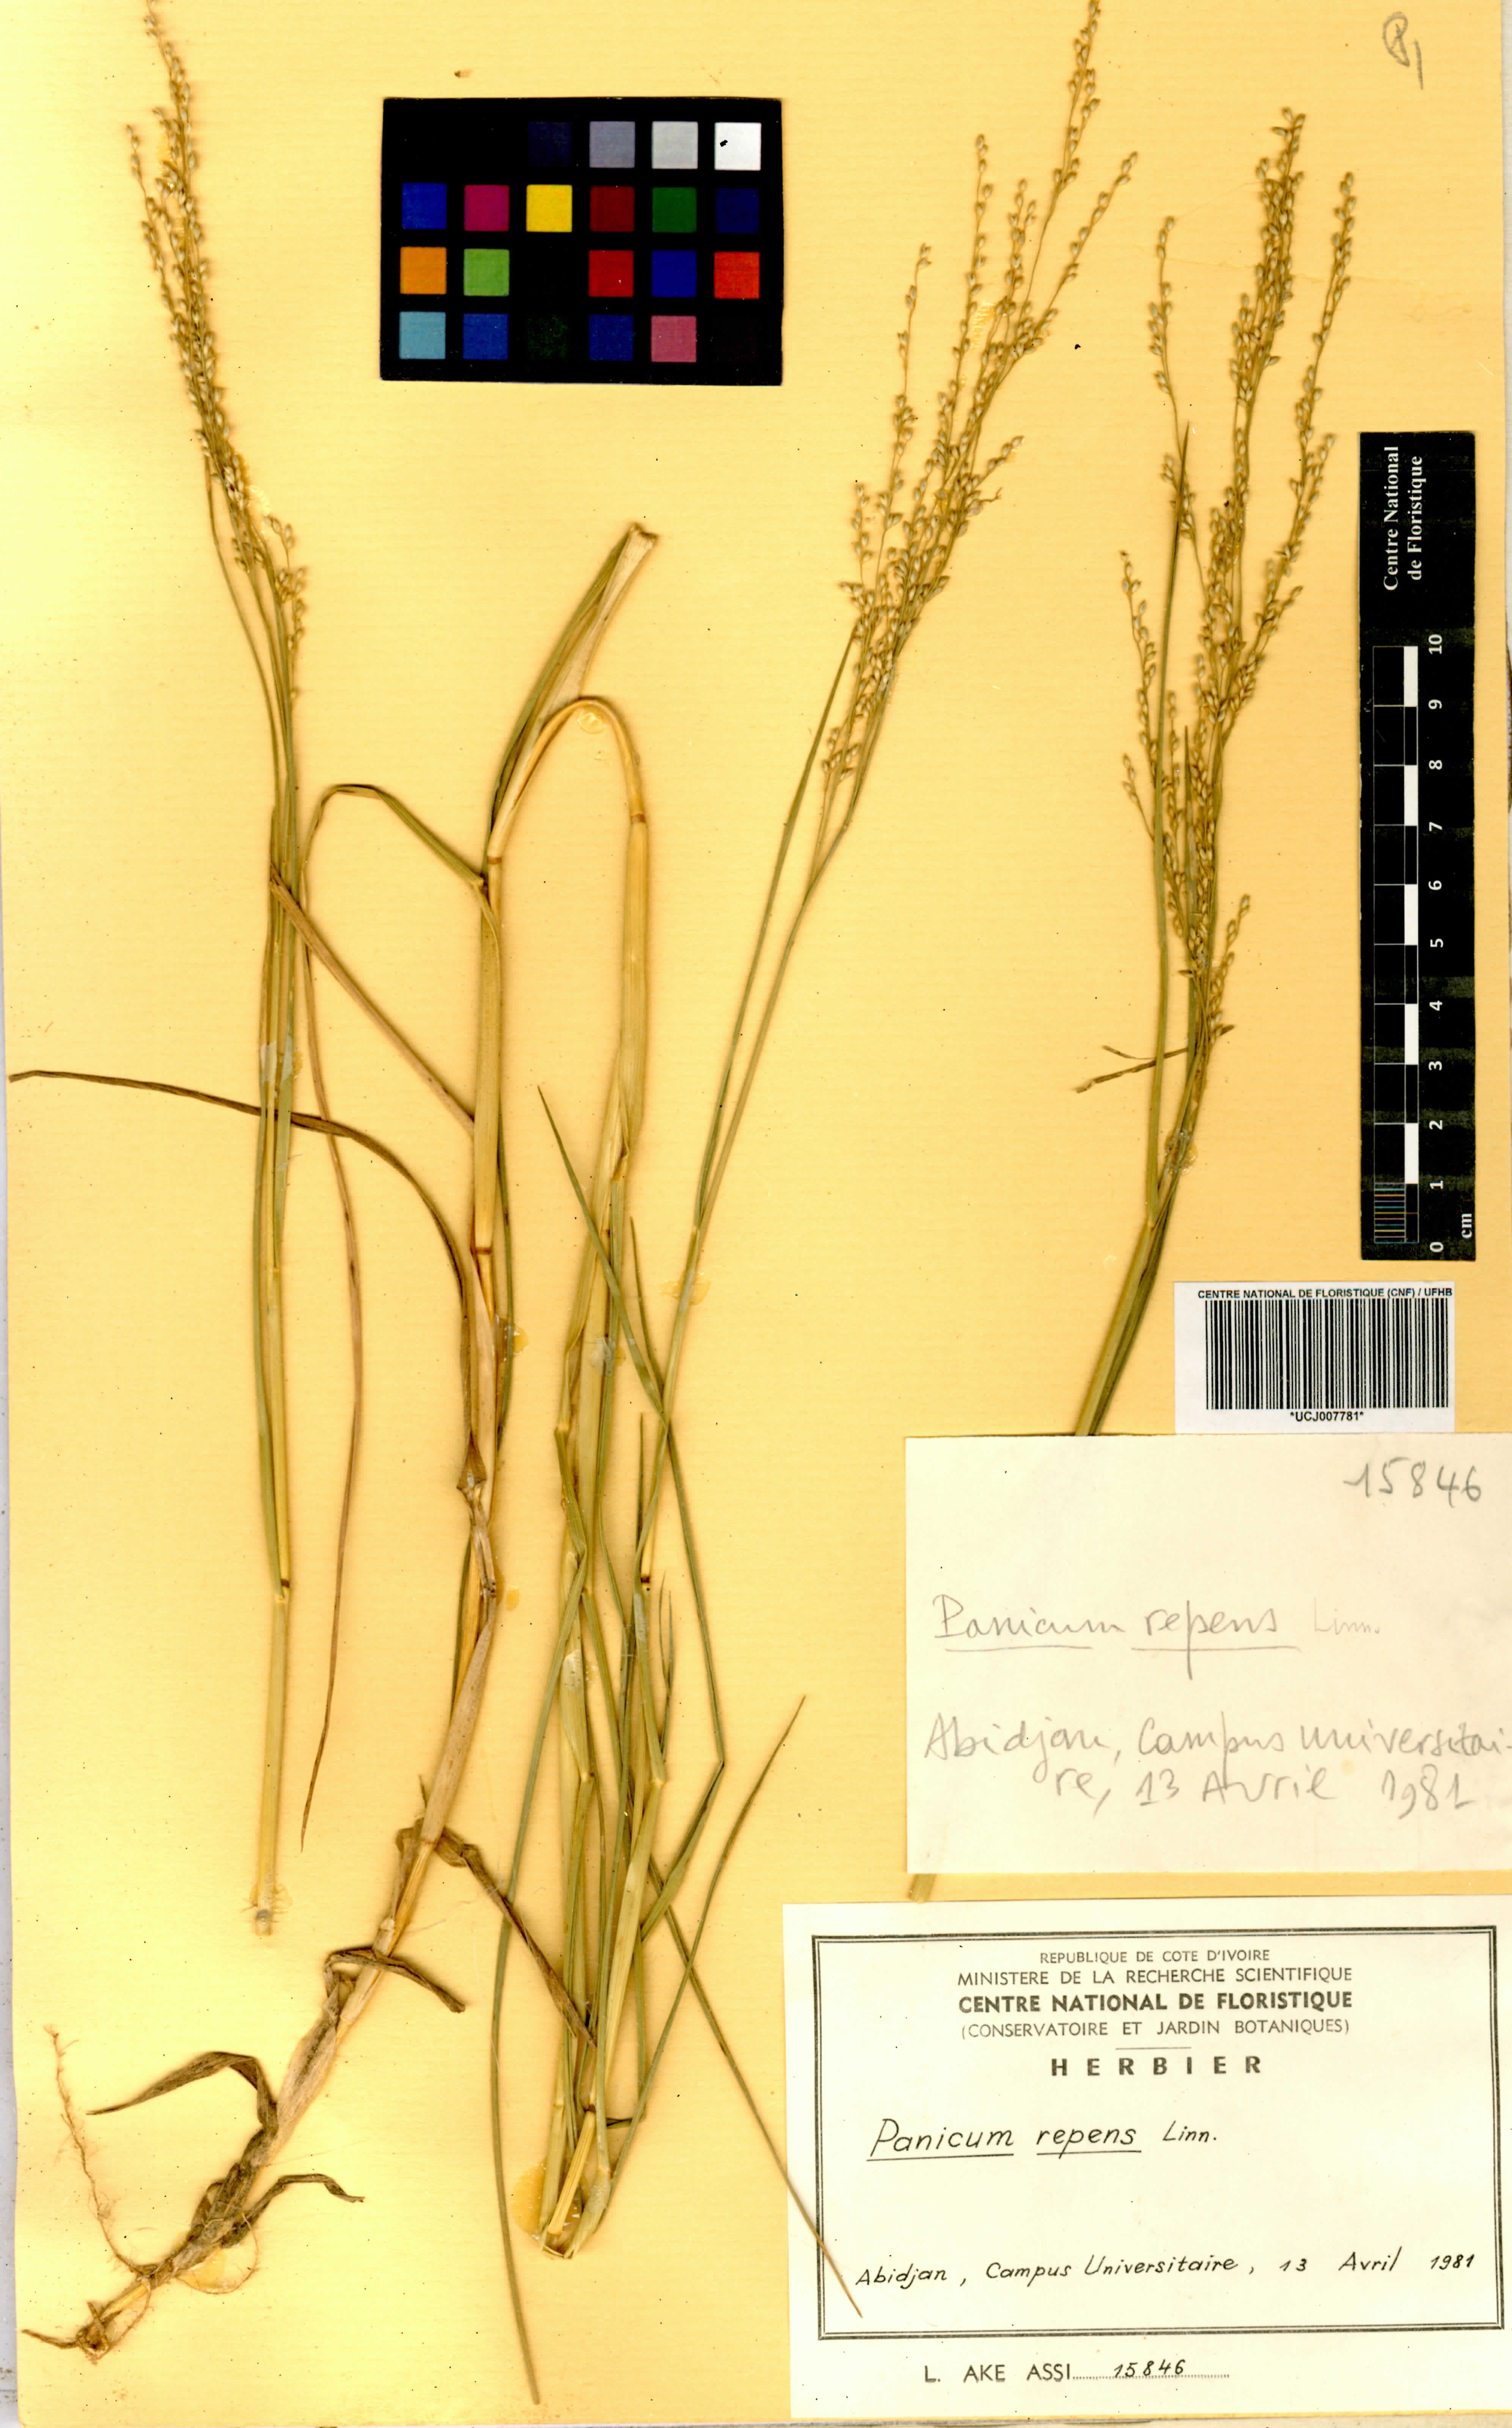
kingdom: Plantae
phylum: Tracheophyta
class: Liliopsida
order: Poales
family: Poaceae
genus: Panicum
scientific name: Panicum repens
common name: Torpedo grass
